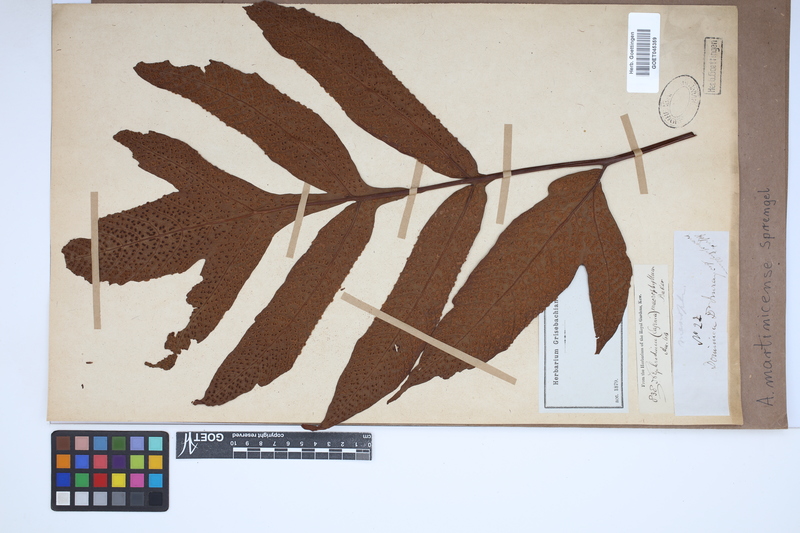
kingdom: Plantae
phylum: Tracheophyta
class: Polypodiopsida
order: Polypodiales
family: Tectariaceae
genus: Tectaria
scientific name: Tectaria incisa
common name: Incised halberd fern
